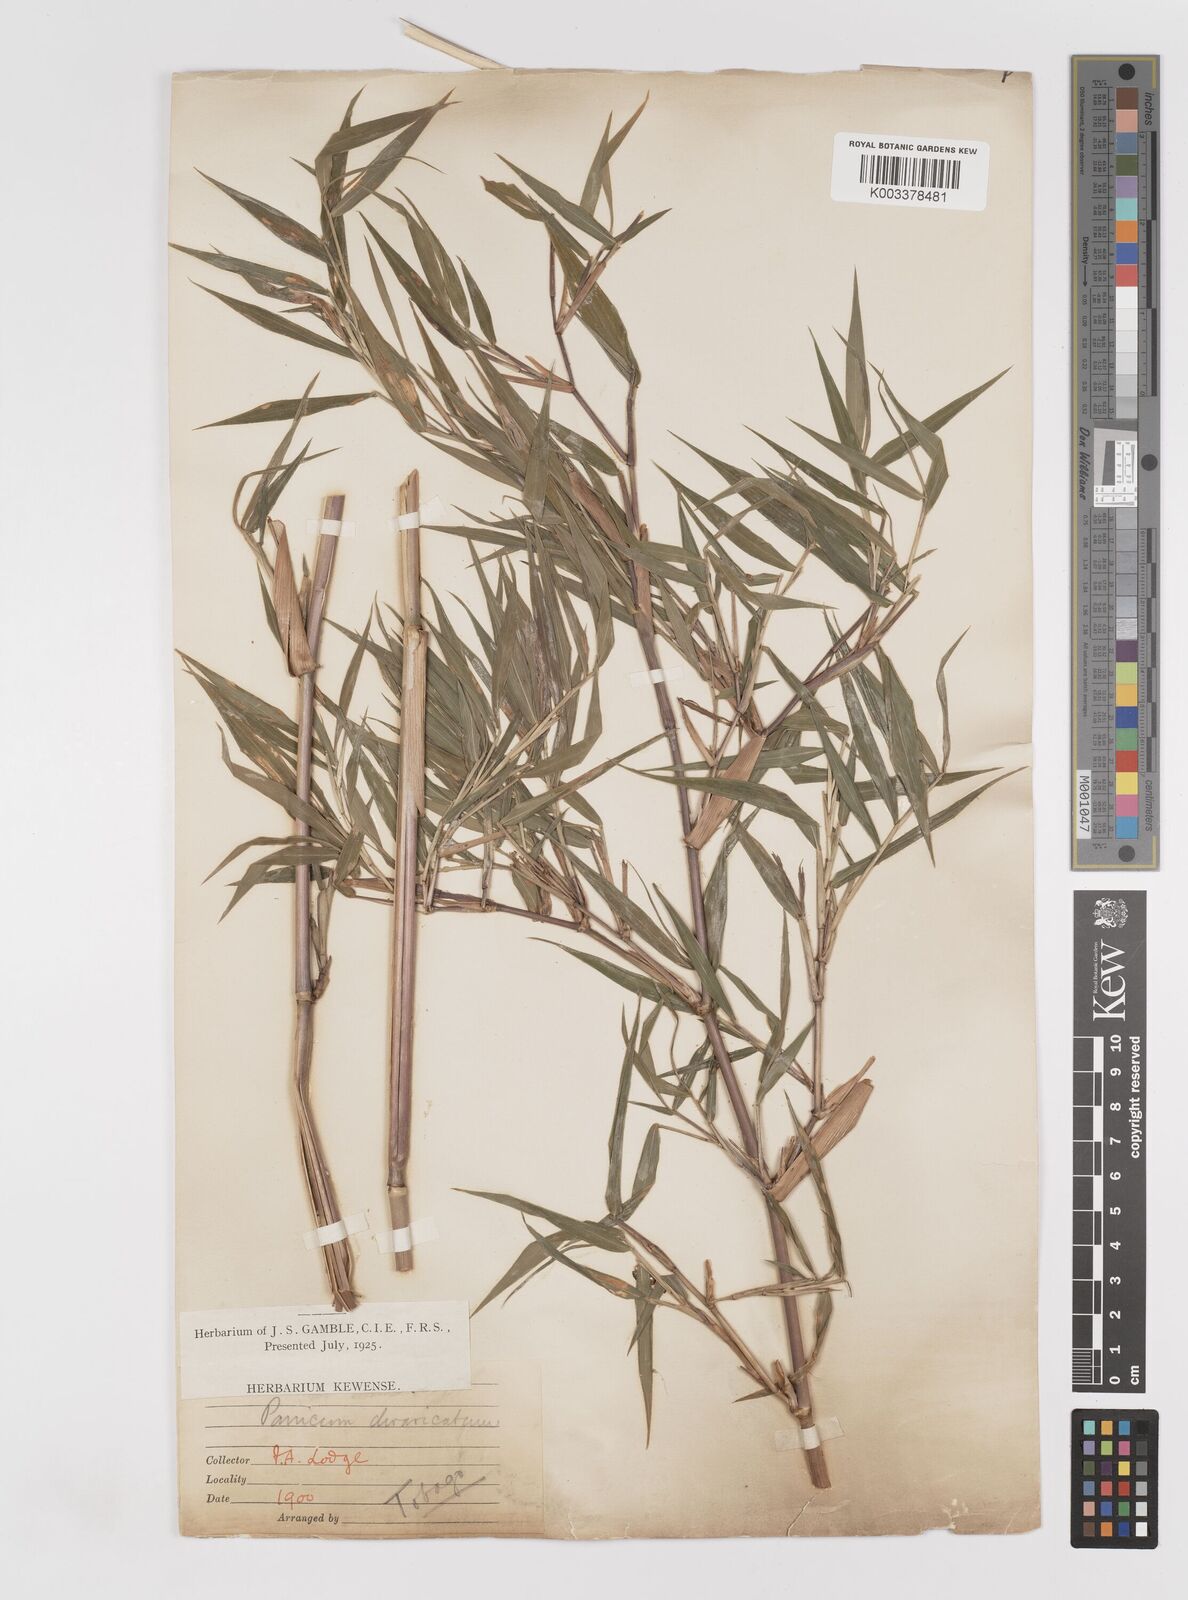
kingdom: Plantae
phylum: Tracheophyta
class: Liliopsida
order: Poales
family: Poaceae
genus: Lasiacis
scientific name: Lasiacis divaricata
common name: Smallcane
